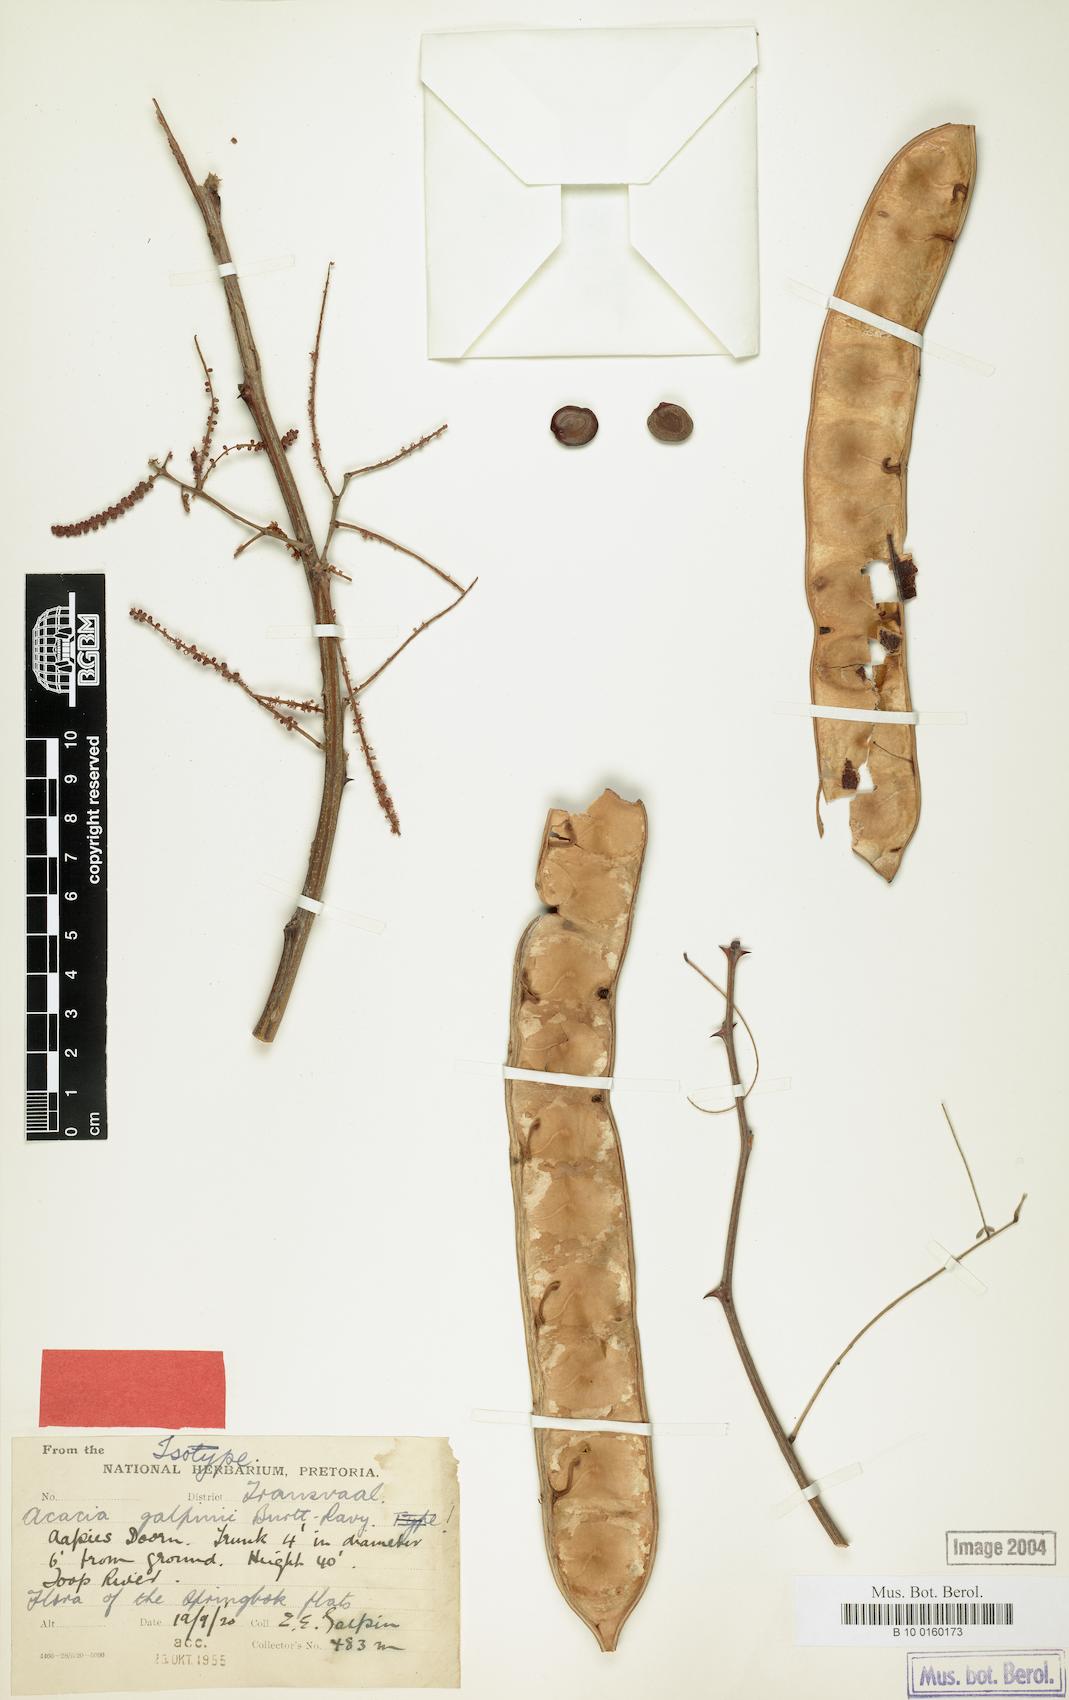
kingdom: Plantae
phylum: Tracheophyta
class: Magnoliopsida
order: Fabales
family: Fabaceae
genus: Senegalia
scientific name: Senegalia galpinii
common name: Monkey-thorn
